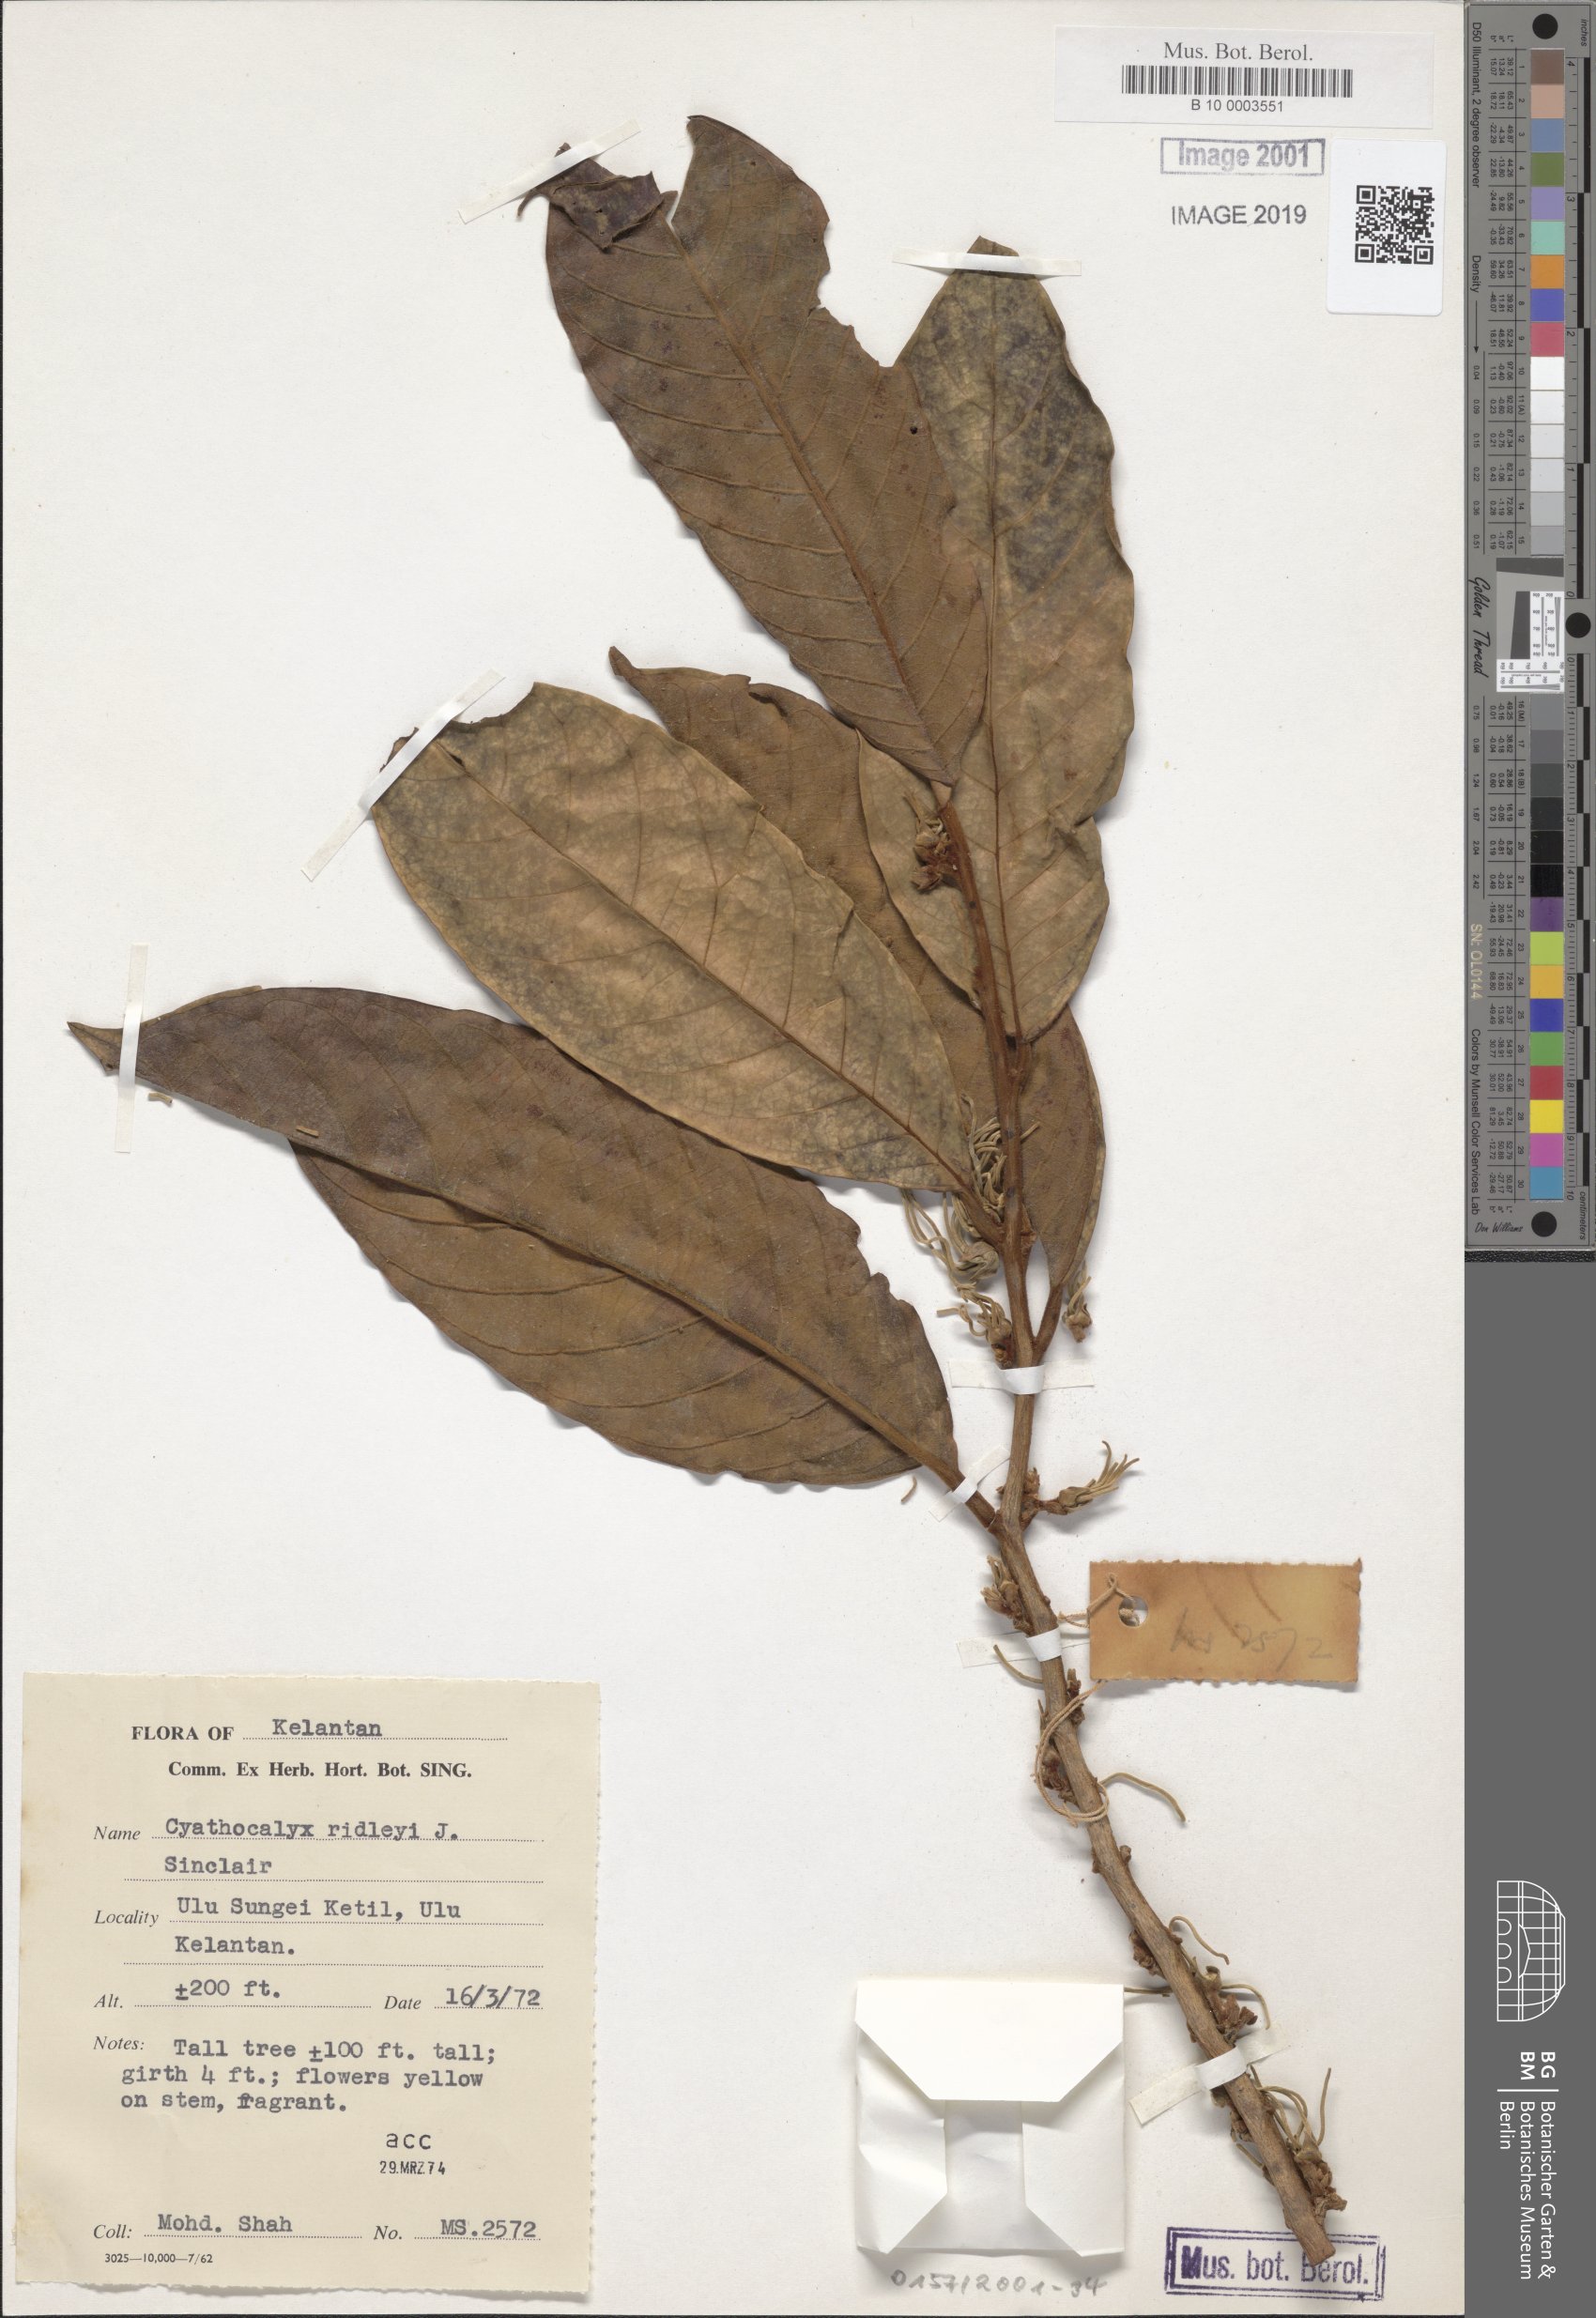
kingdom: Plantae
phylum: Tracheophyta
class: Magnoliopsida
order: Magnoliales
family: Annonaceae
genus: Drepananthus
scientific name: Drepananthus ridleyi
